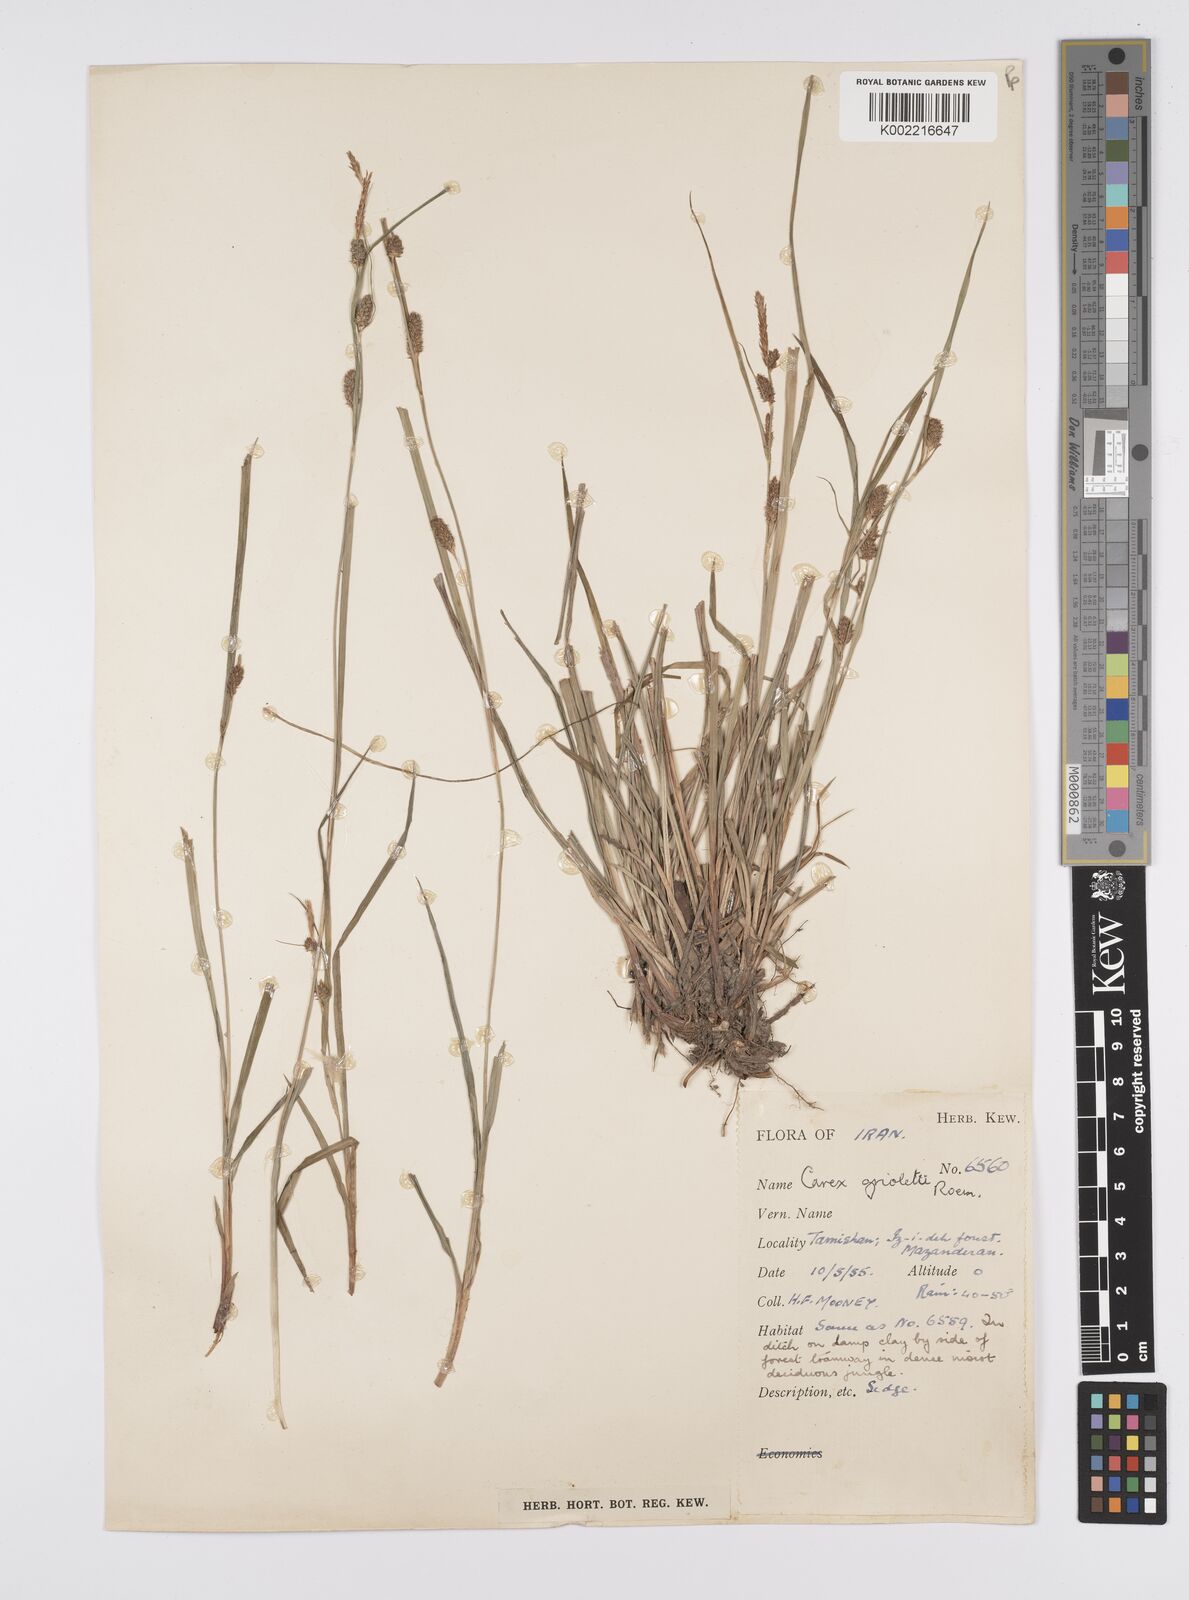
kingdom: Plantae
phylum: Tracheophyta
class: Liliopsida
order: Poales
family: Cyperaceae
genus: Carex
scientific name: Carex grioletii
